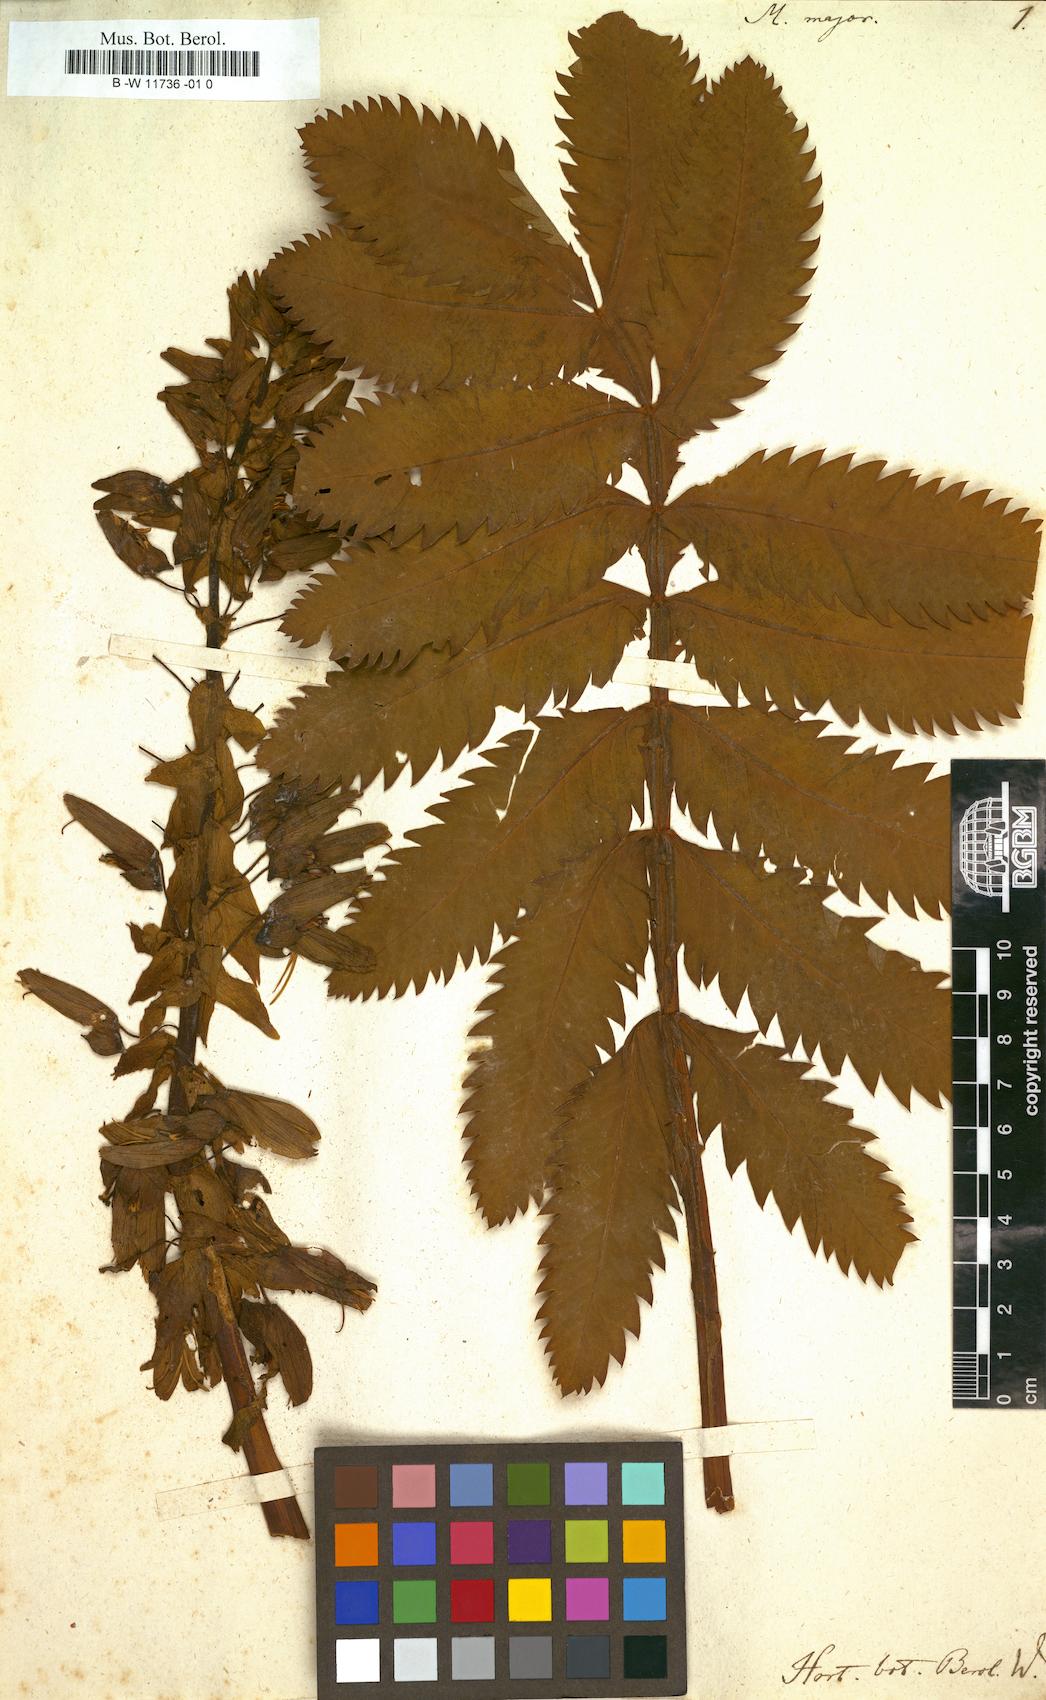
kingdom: Plantae
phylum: Tracheophyta
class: Magnoliopsida
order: Geraniales
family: Melianthaceae
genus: Melianthus
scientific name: Melianthus major
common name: Honey-flower
